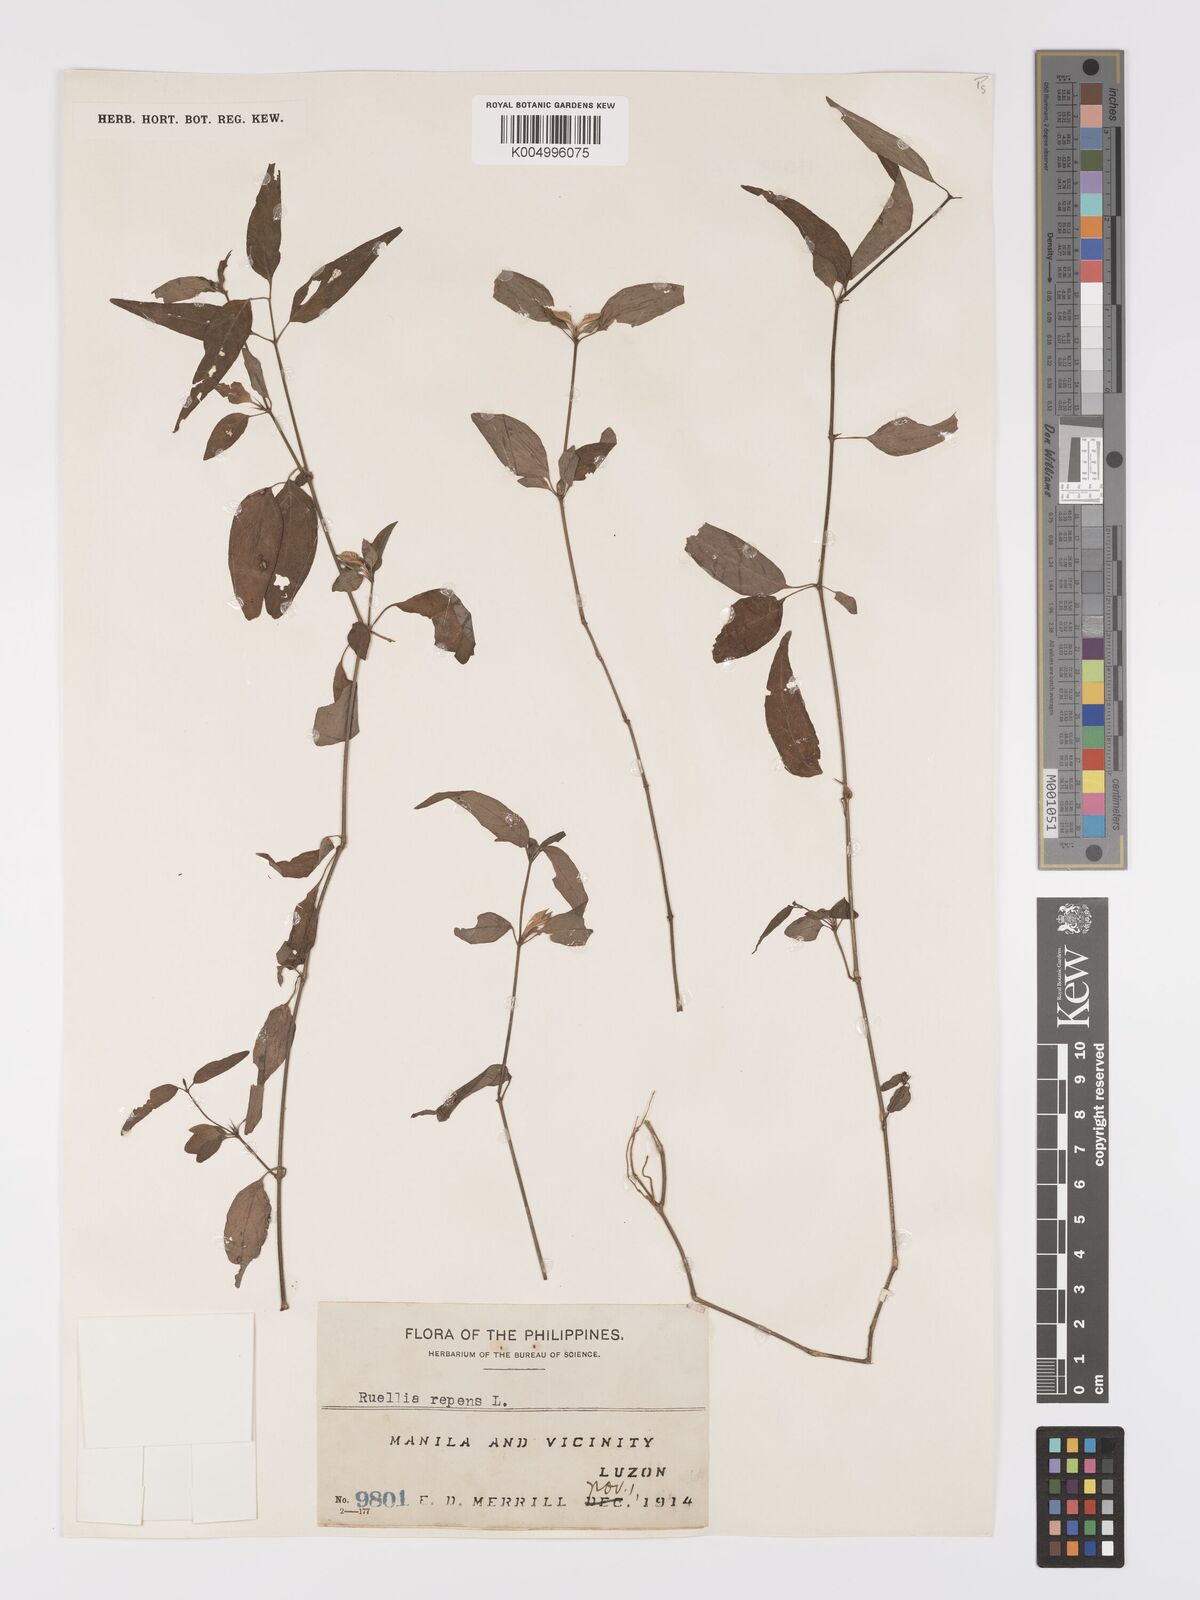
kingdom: Plantae
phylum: Tracheophyta
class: Magnoliopsida
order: Lamiales
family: Acanthaceae
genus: Ruellia
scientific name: Ruellia
